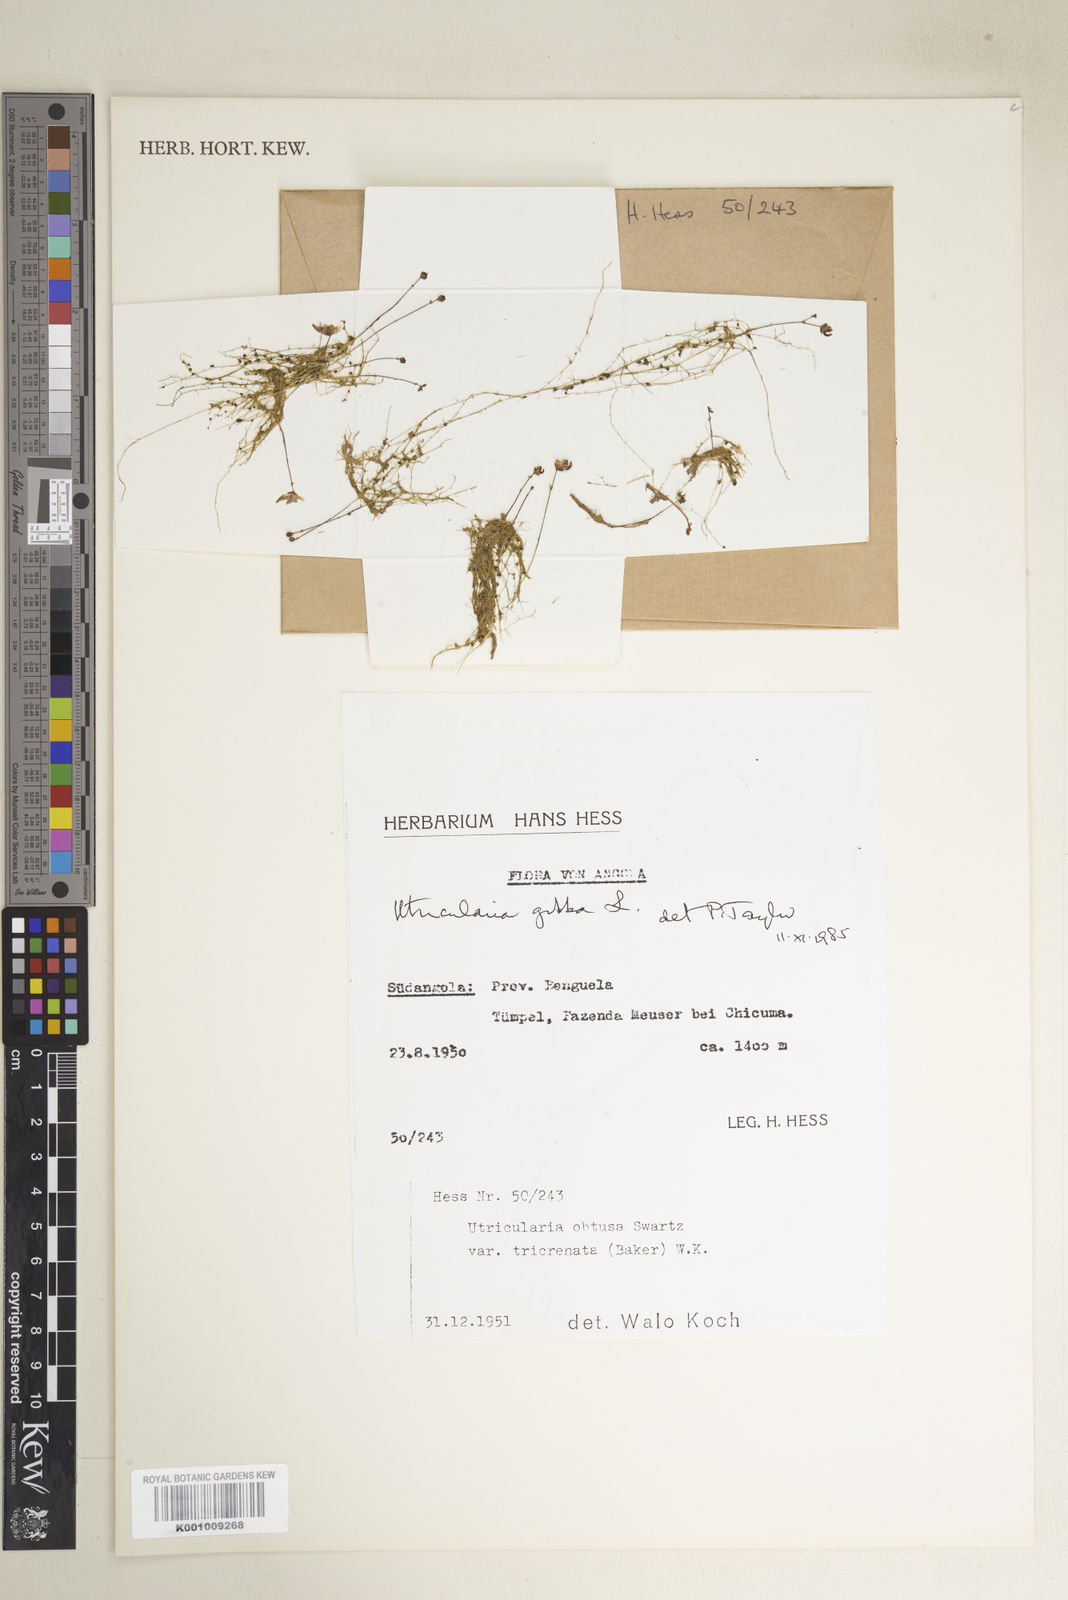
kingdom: Plantae
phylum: Tracheophyta
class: Magnoliopsida
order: Lamiales
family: Lentibulariaceae
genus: Utricularia
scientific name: Utricularia gibba
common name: Humped bladderwort
